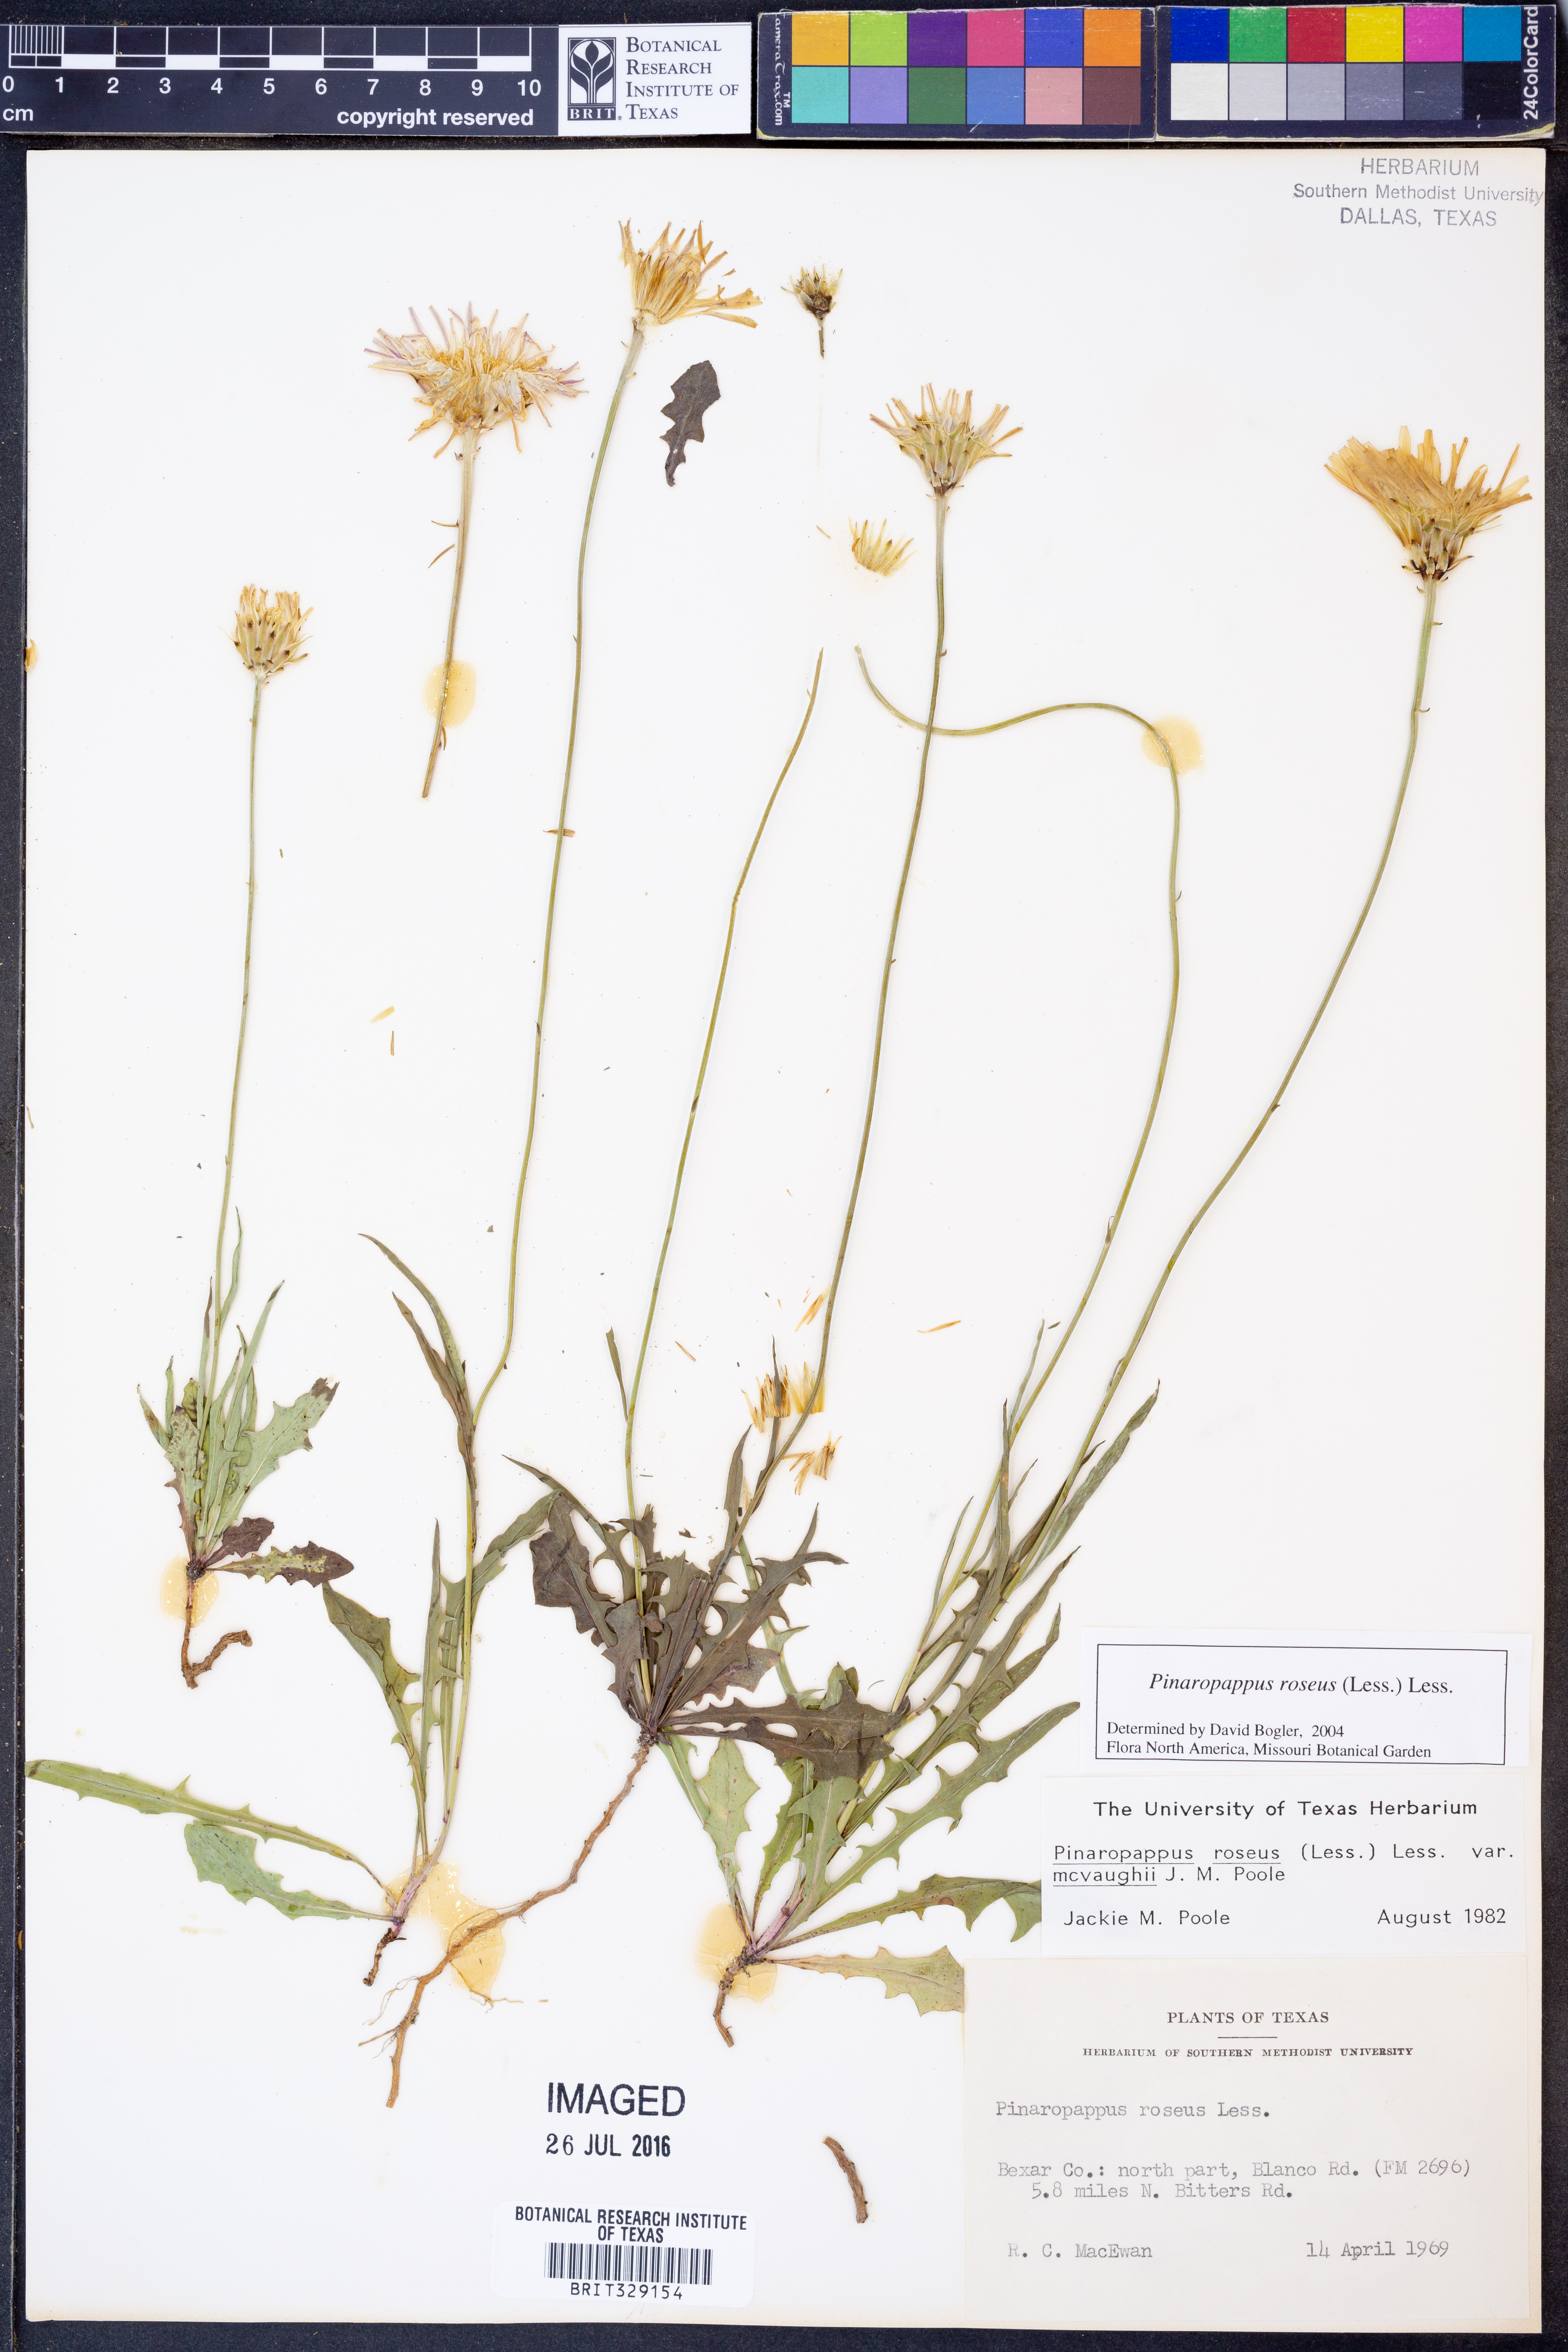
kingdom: Plantae
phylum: Tracheophyta
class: Magnoliopsida
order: Asterales
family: Asteraceae
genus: Pinaropappus
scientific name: Pinaropappus roseus
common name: Rock-lettuce
